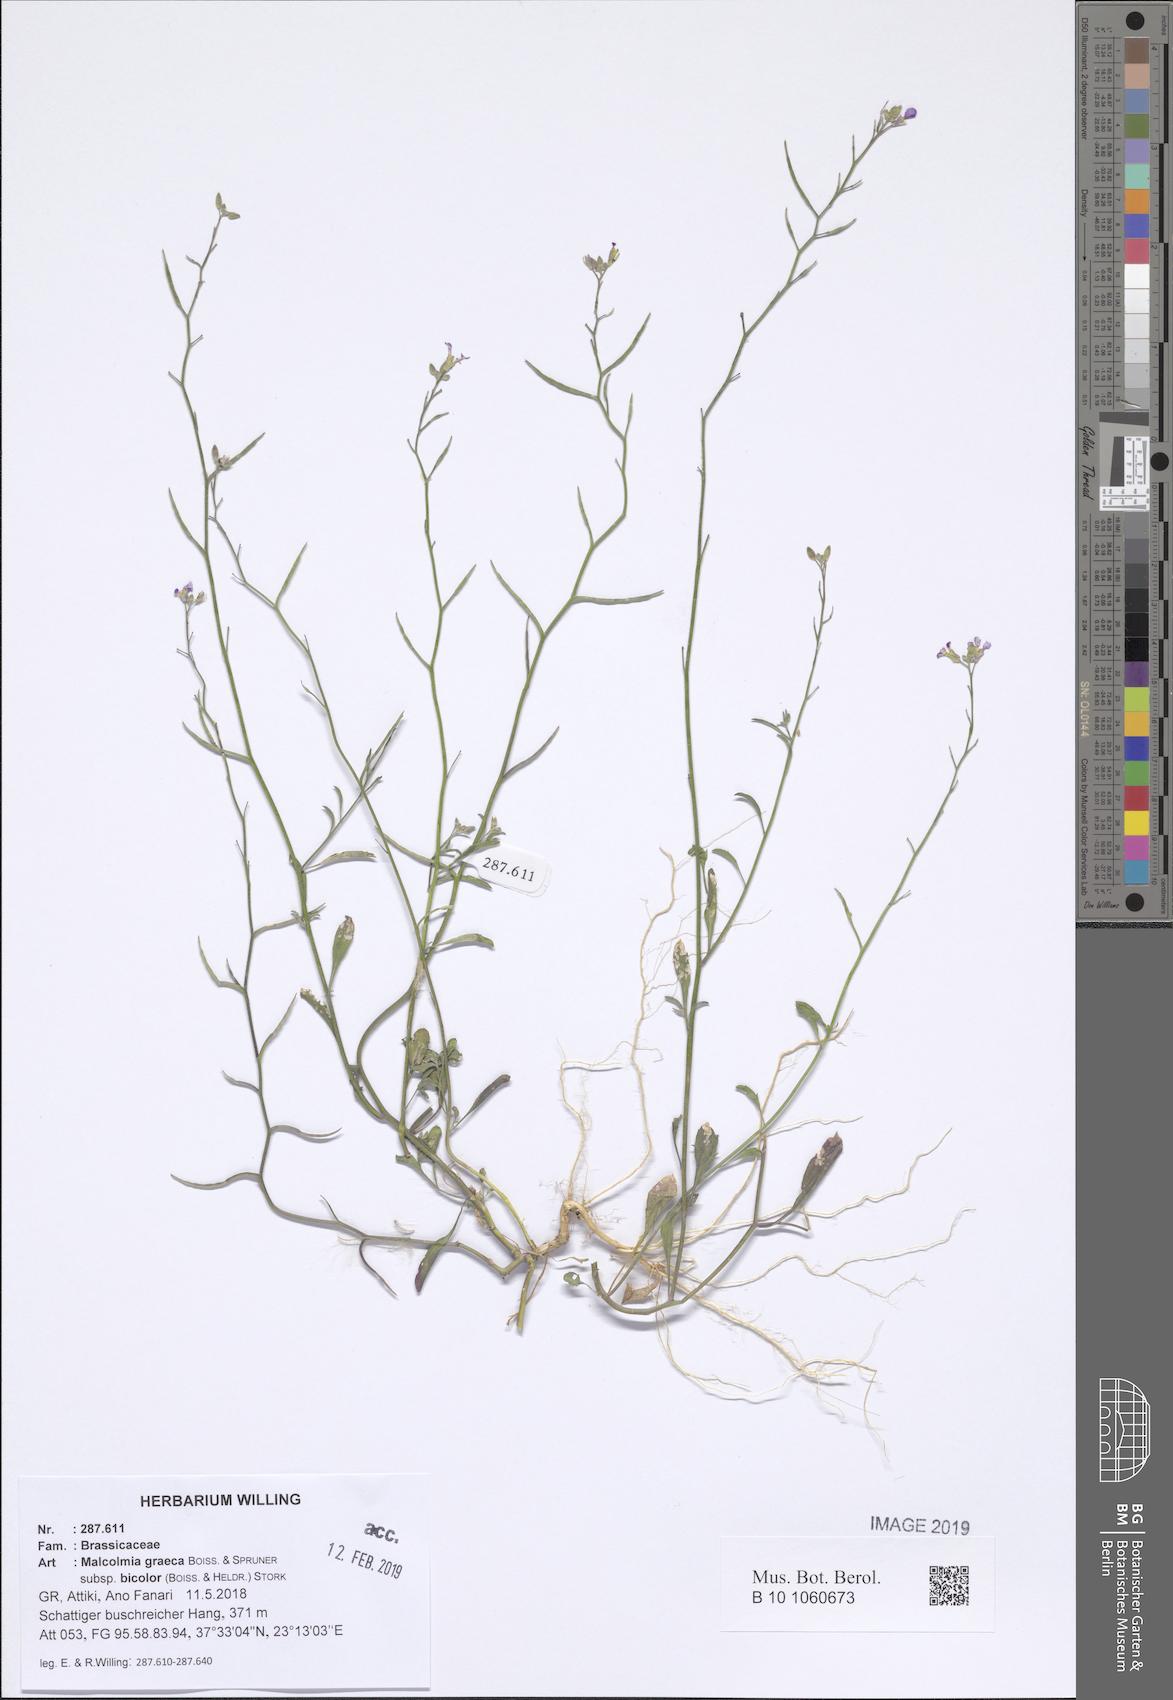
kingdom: Plantae
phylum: Tracheophyta
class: Magnoliopsida
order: Brassicales
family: Brassicaceae
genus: Malcolmia
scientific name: Malcolmia graeca
